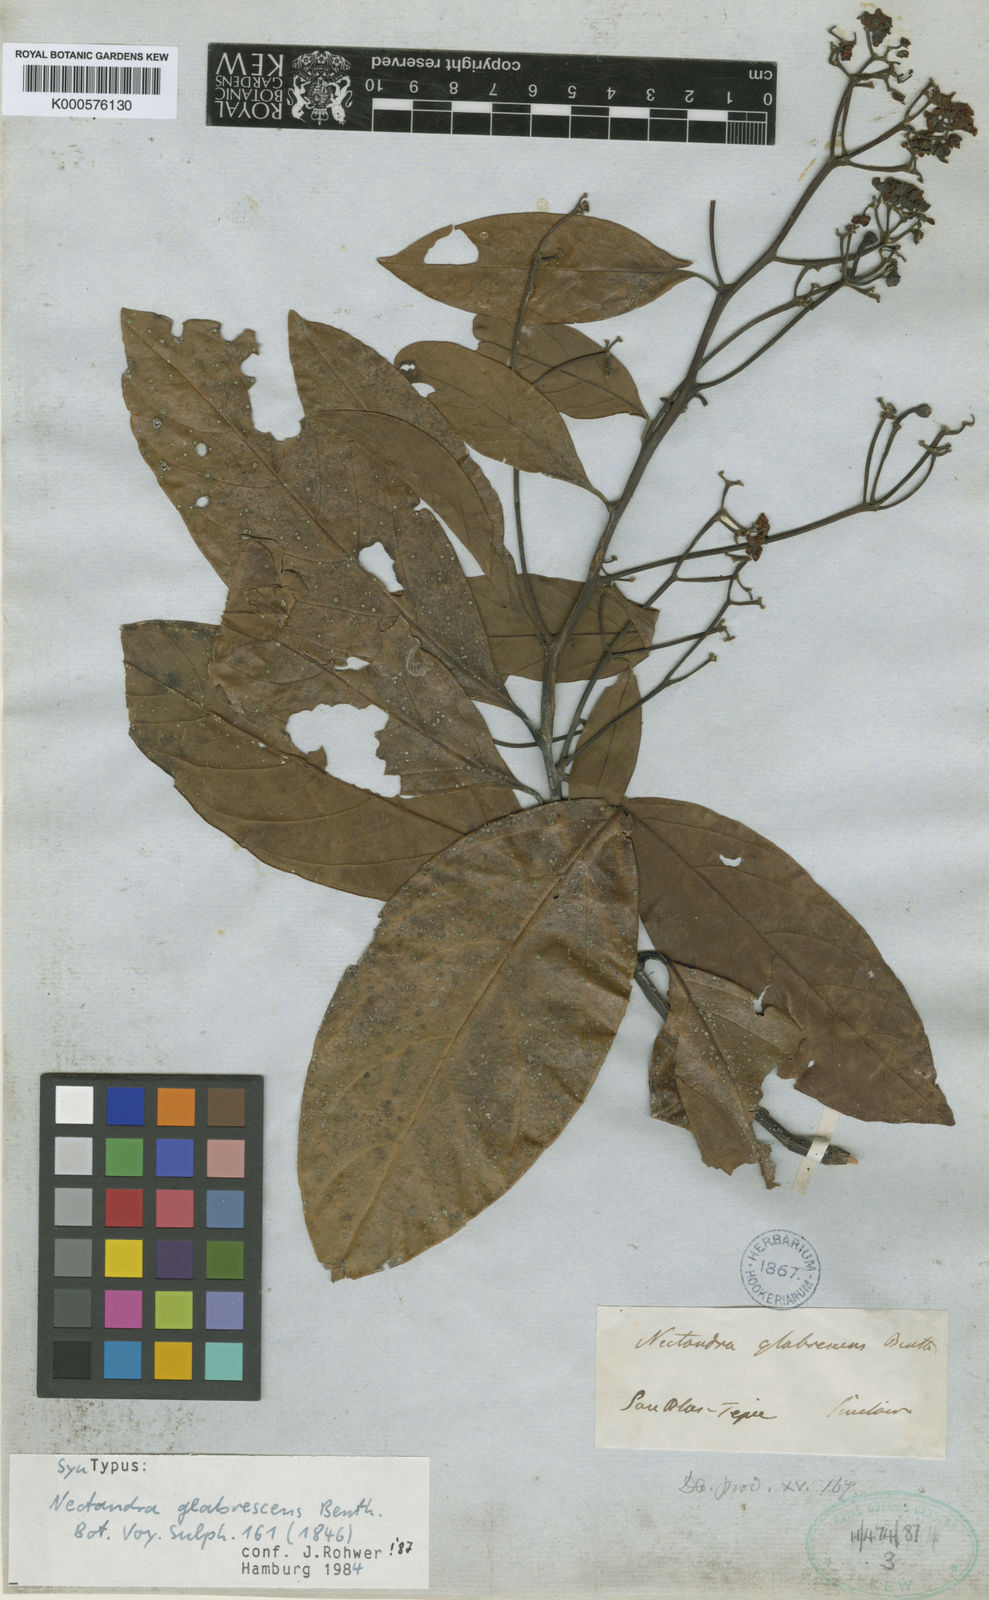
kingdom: Plantae
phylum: Tracheophyta
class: Magnoliopsida
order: Laurales
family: Lauraceae
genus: Nectandra
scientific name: Nectandra hihua
